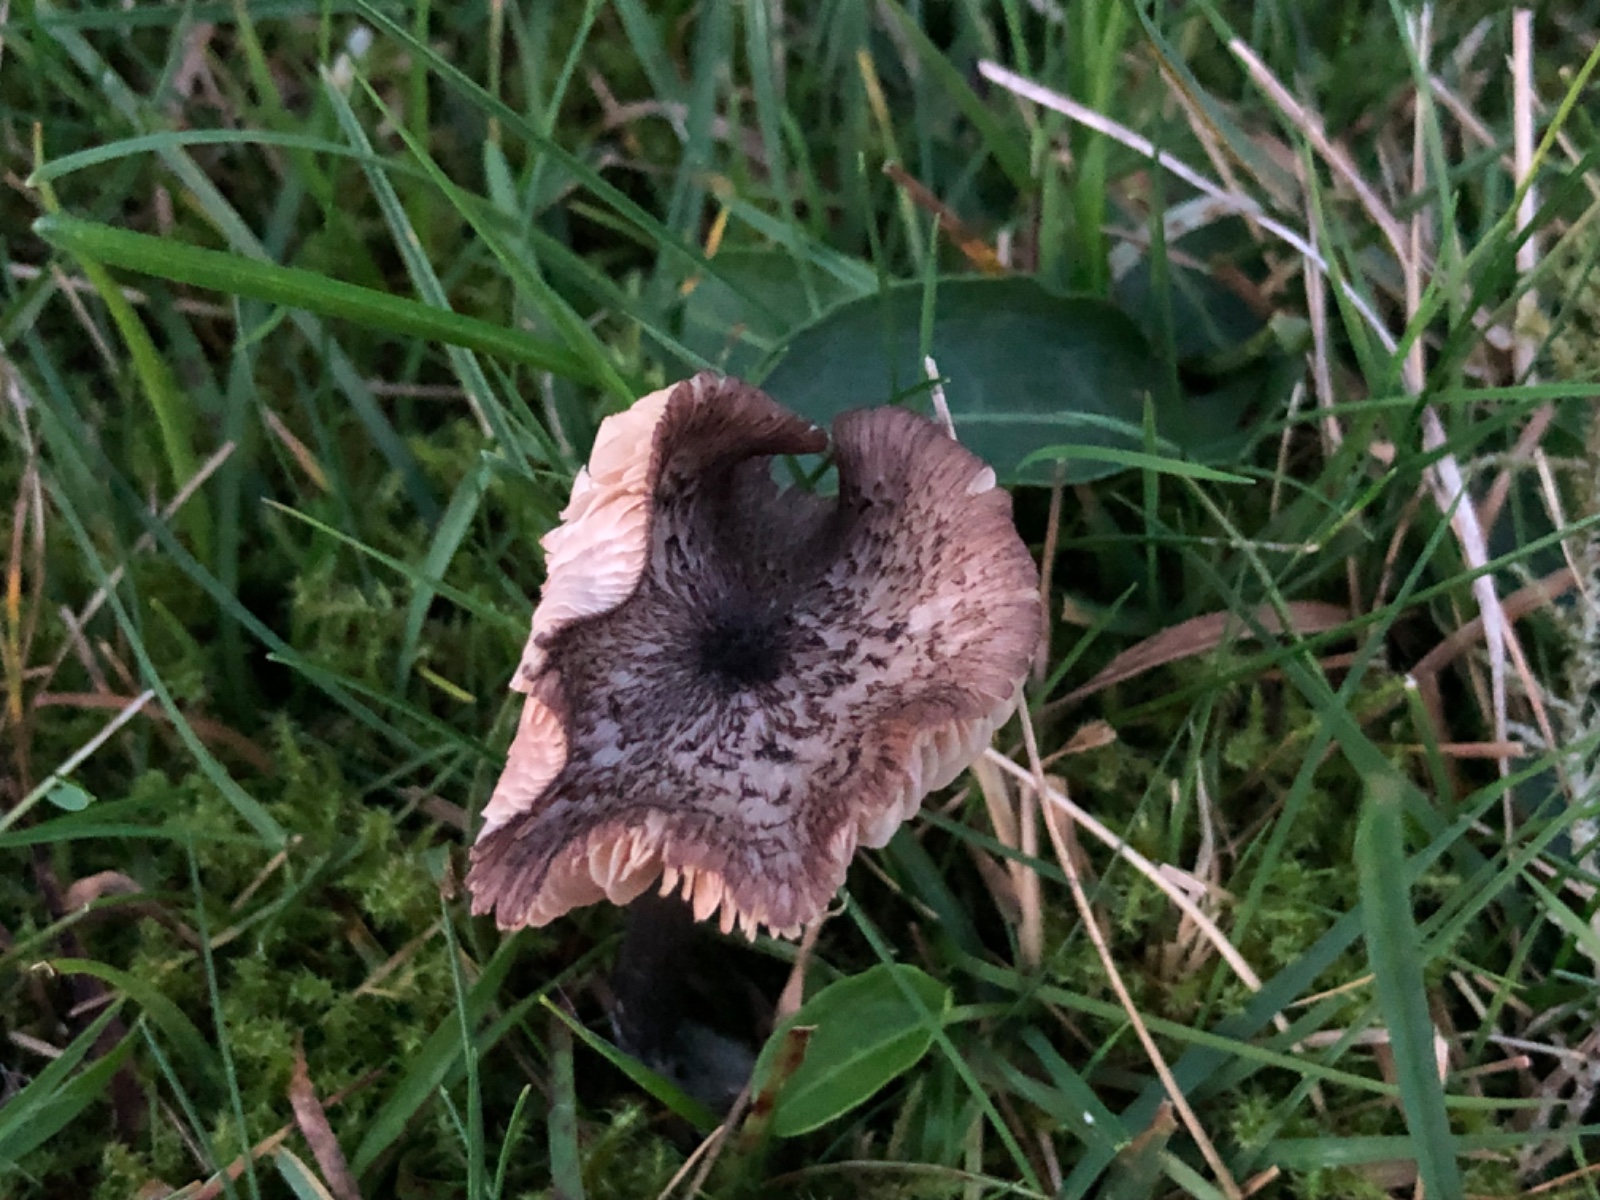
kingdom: Fungi
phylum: Basidiomycota
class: Agaricomycetes
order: Agaricales
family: Entolomataceae
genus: Entoloma
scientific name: Entoloma viiduense
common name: purpurbrun rødblad
